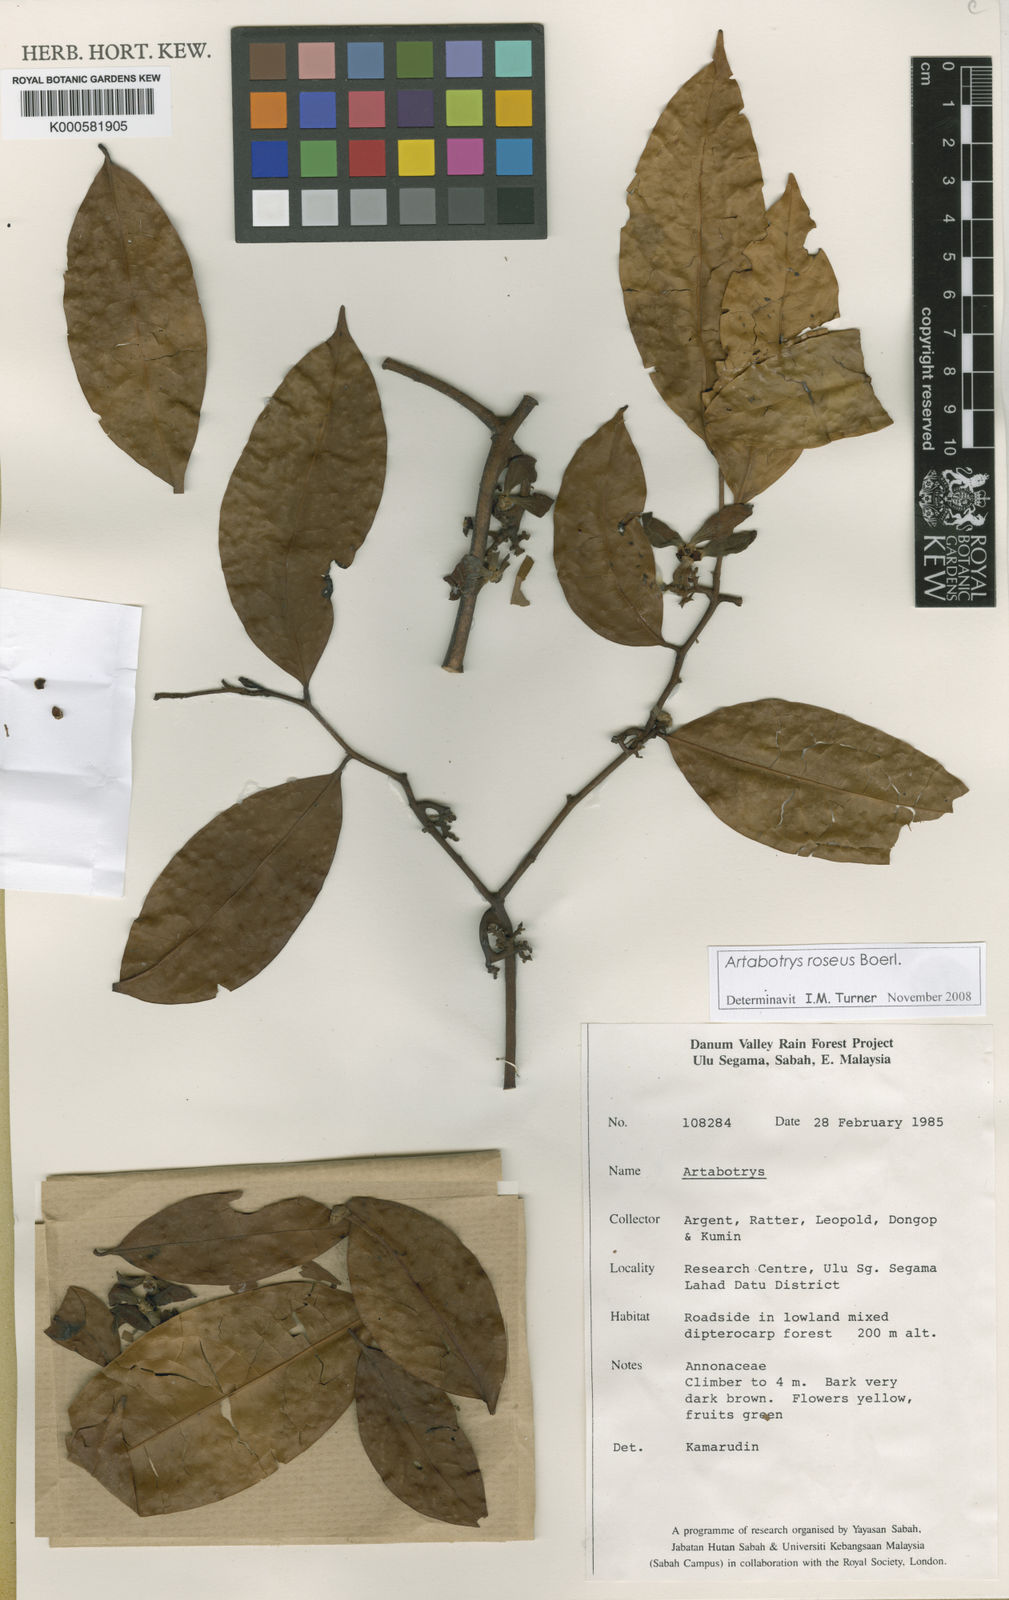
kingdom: Plantae
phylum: Tracheophyta
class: Magnoliopsida
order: Magnoliales
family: Annonaceae
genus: Artabotrys
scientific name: Artabotrys ochropetalus
